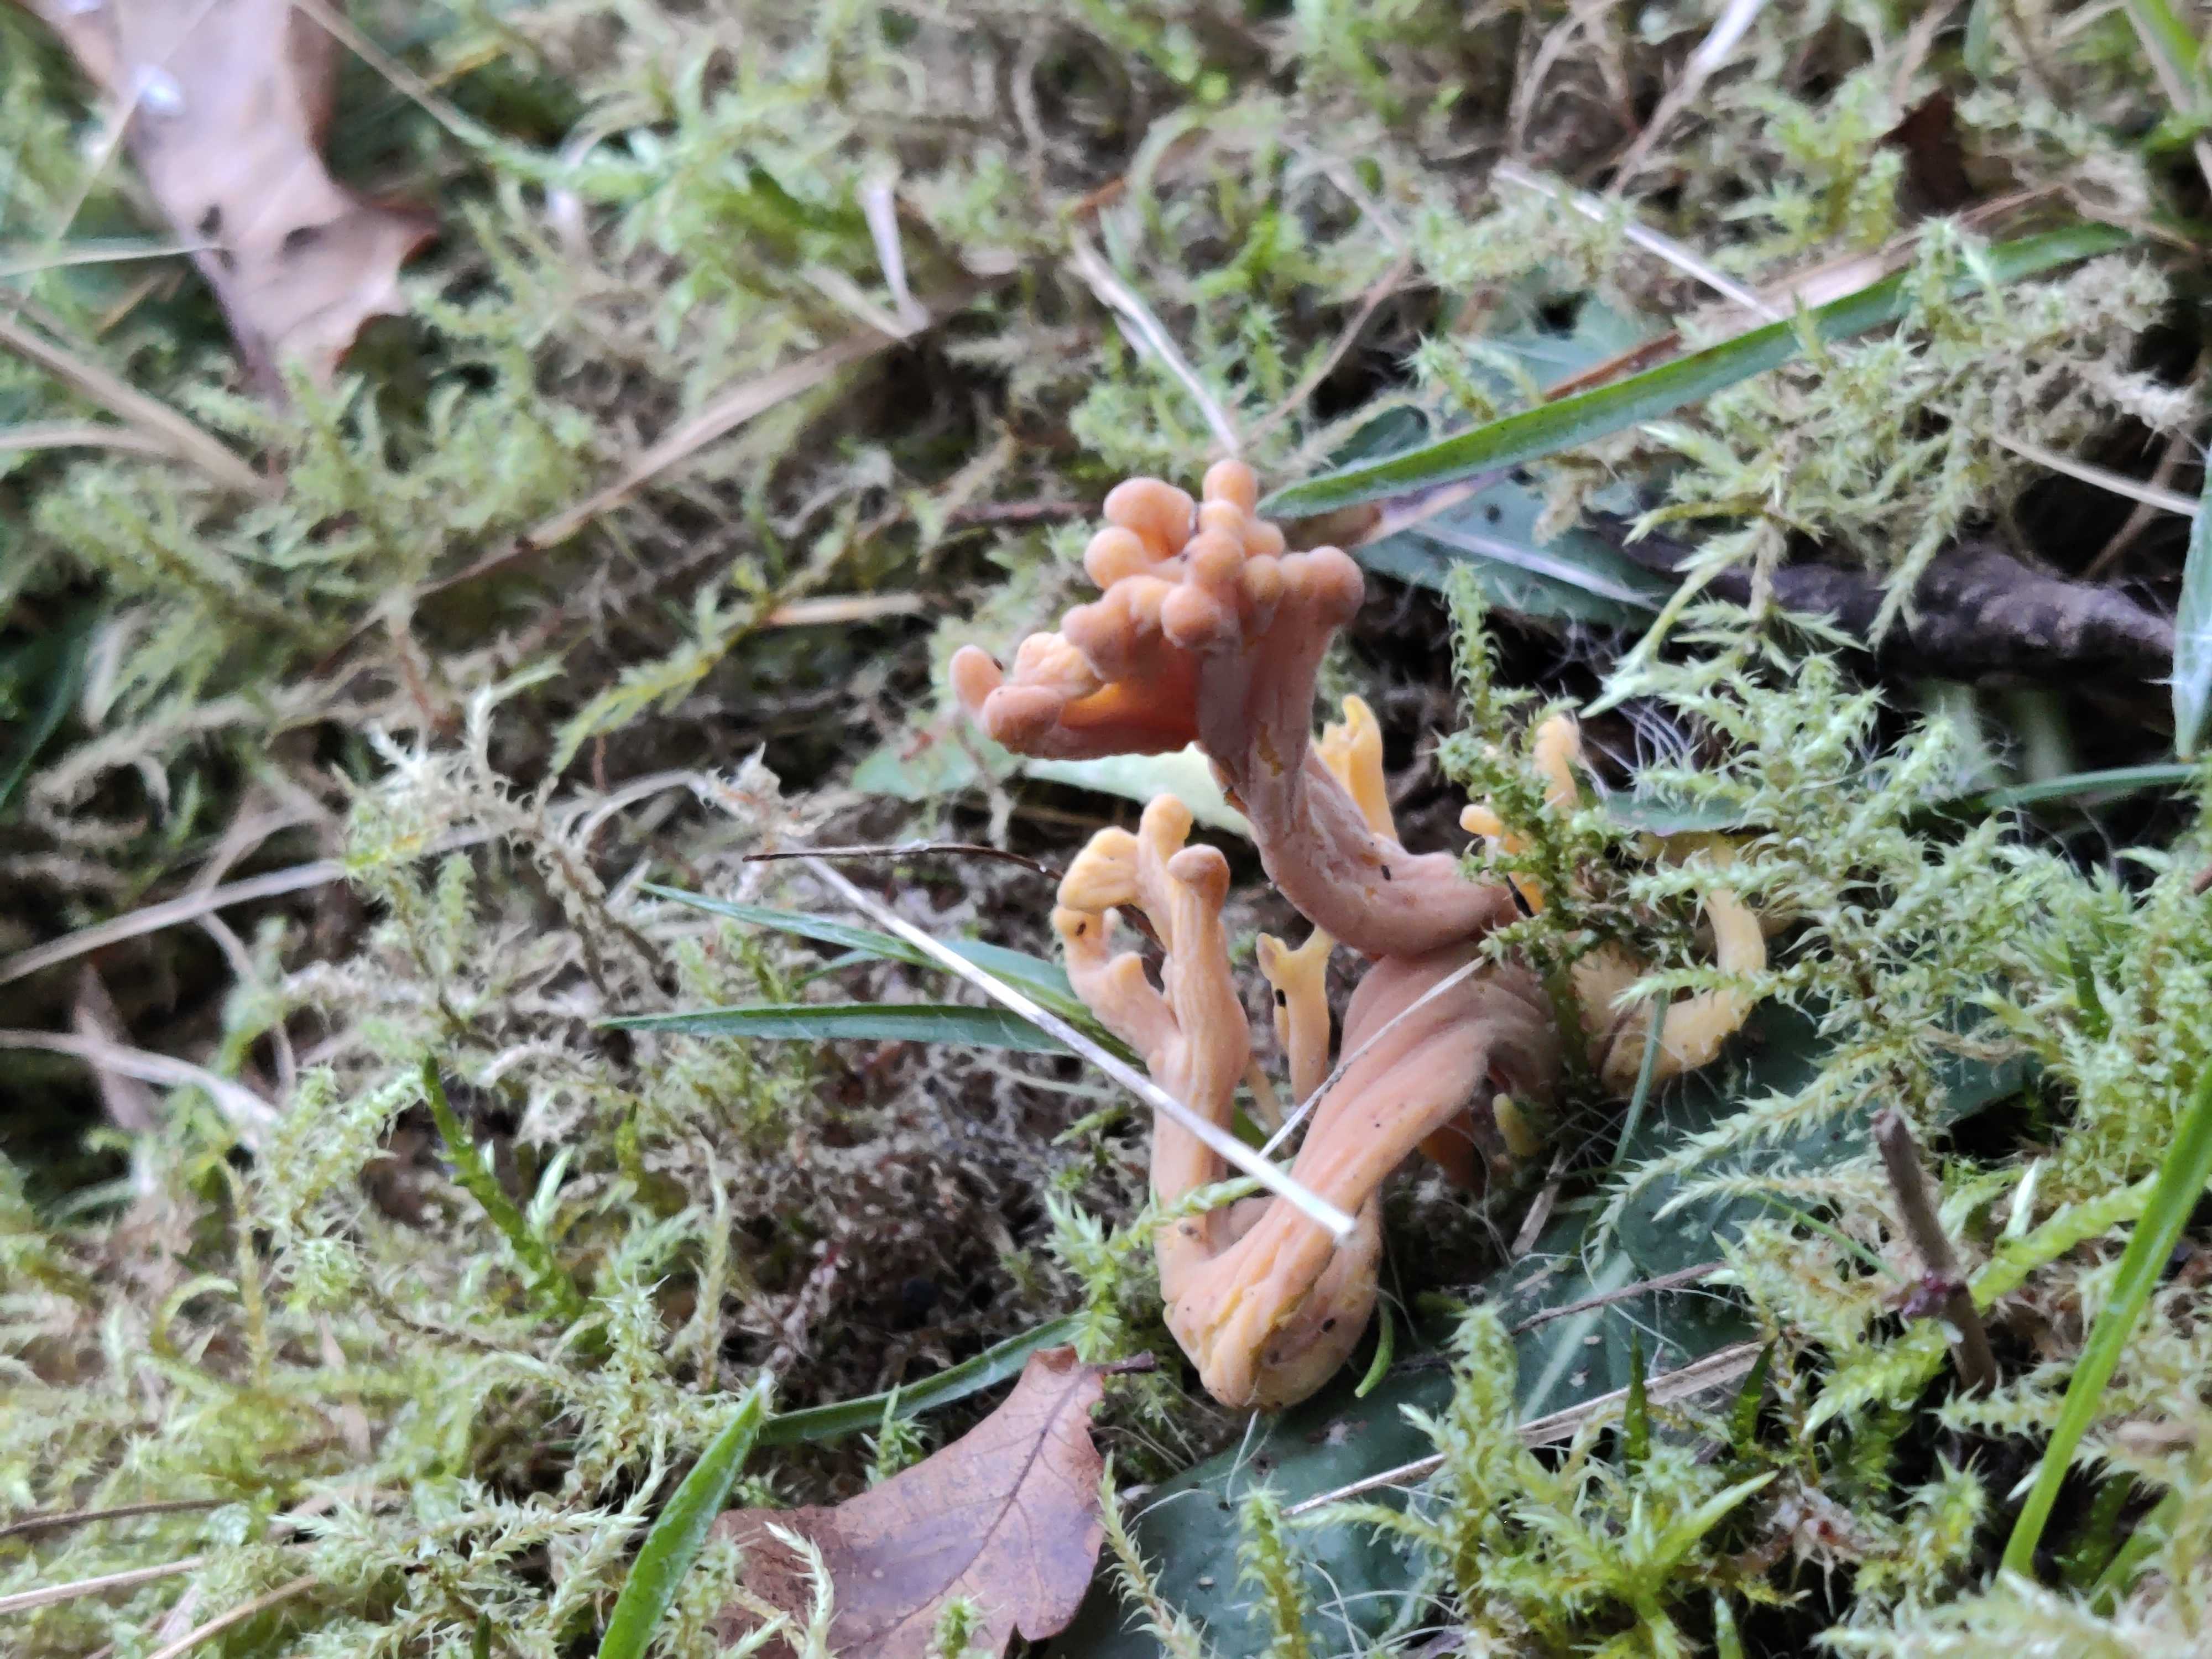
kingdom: Fungi
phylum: Basidiomycota
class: Agaricomycetes
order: Agaricales
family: Clavariaceae
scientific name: Clavariaceae
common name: køllesvampfamilien
